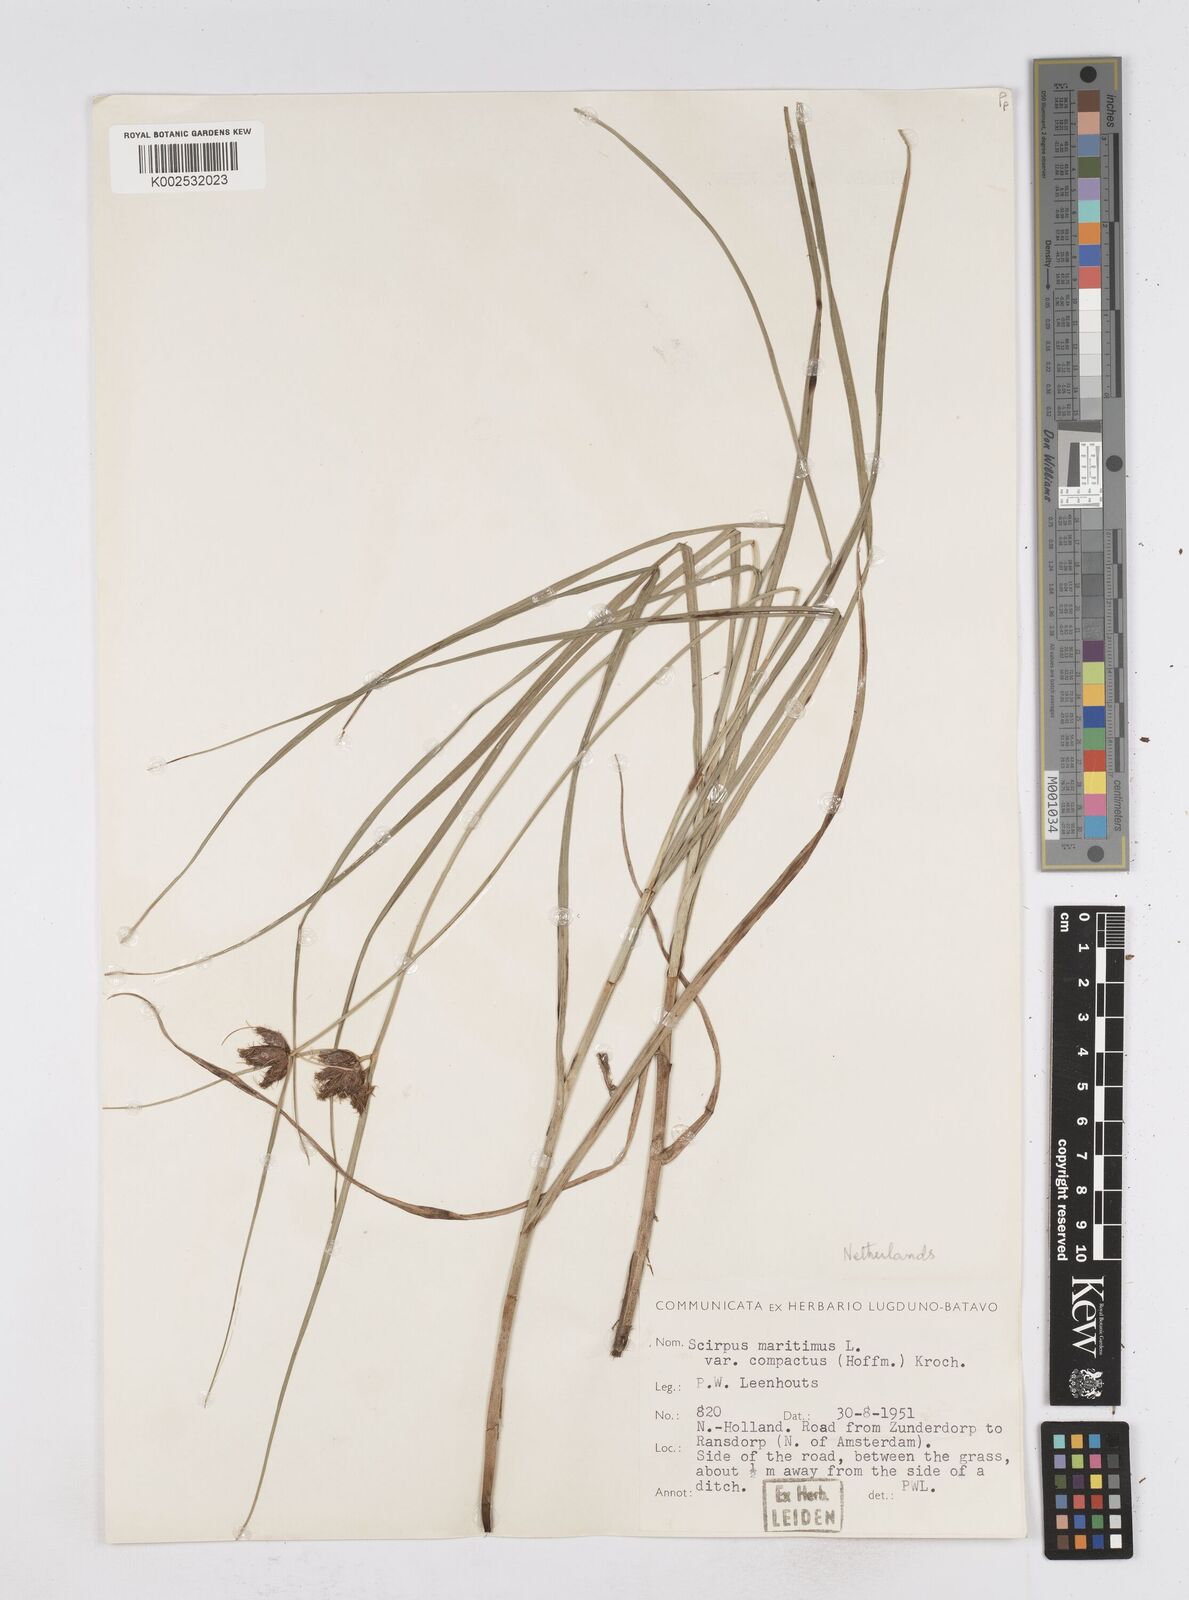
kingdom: Plantae
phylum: Tracheophyta
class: Liliopsida
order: Poales
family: Cyperaceae
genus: Bolboschoenus
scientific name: Bolboschoenus maritimus
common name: Sea club-rush
